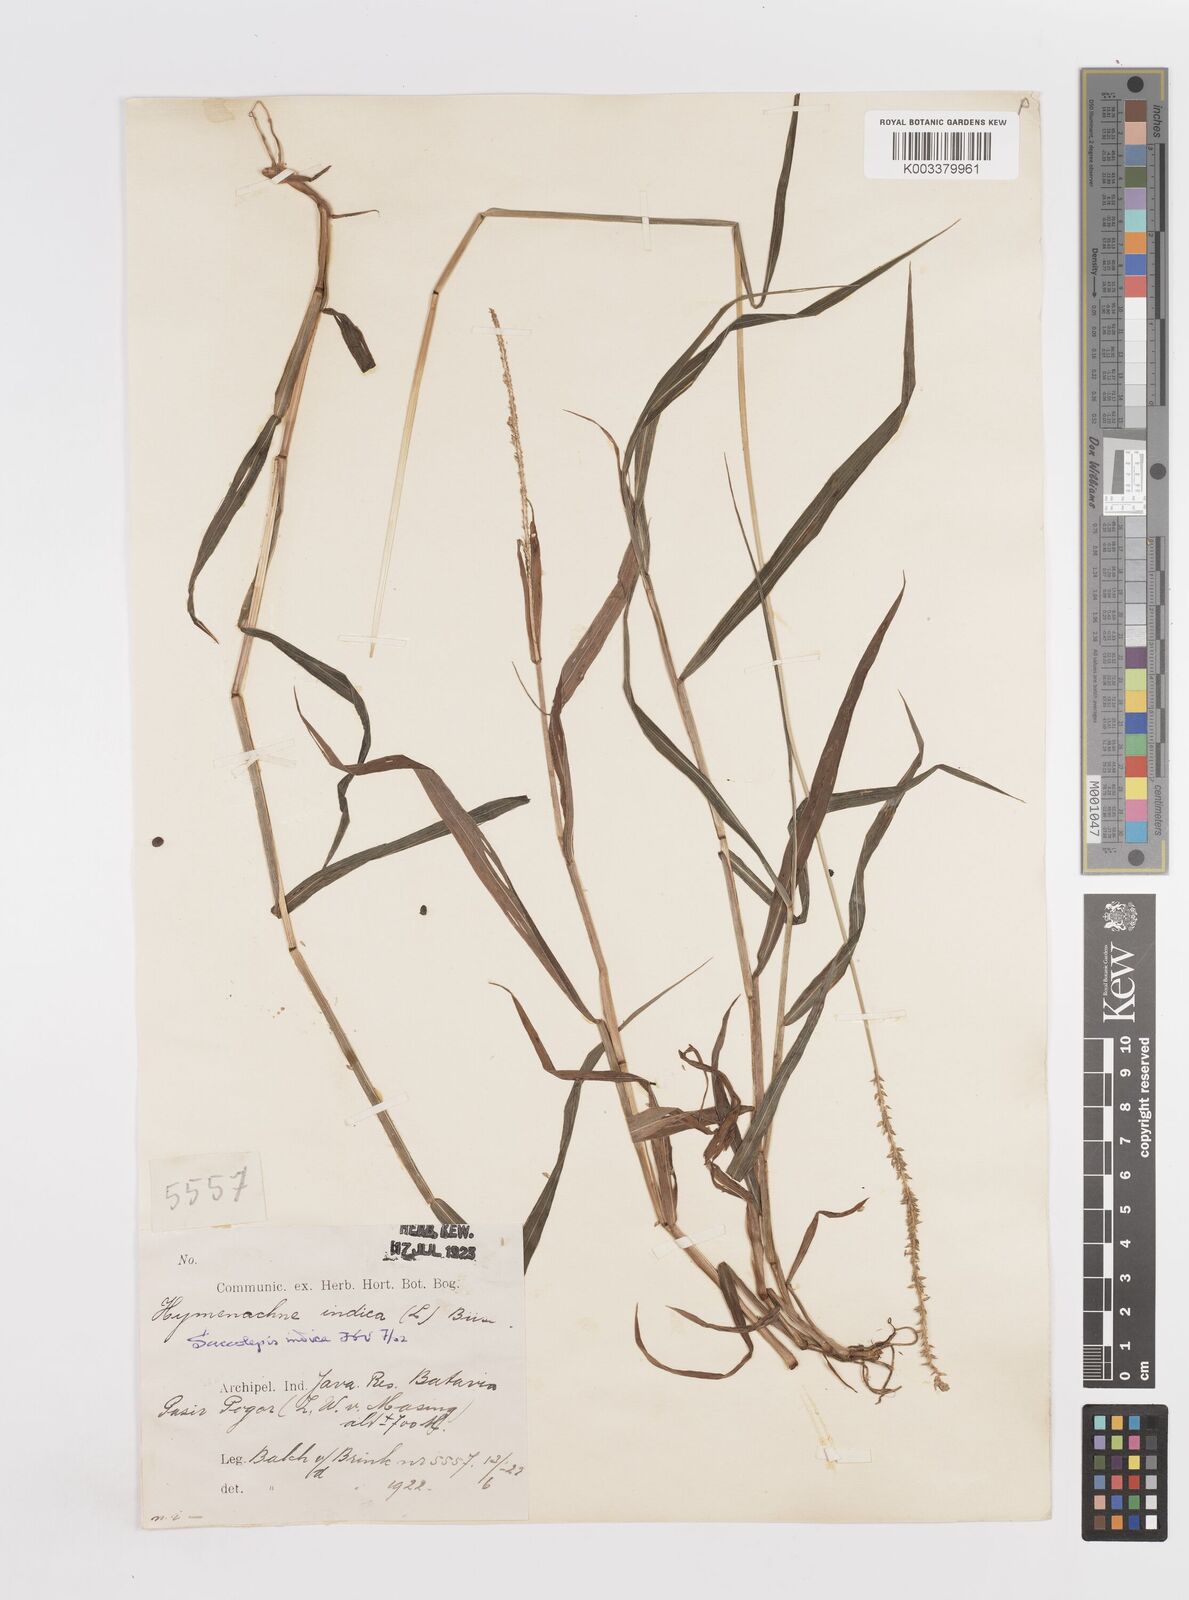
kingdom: Plantae
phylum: Tracheophyta
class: Liliopsida
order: Poales
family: Poaceae
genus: Sacciolepis
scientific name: Sacciolepis indica
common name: Glenwoodgrass
